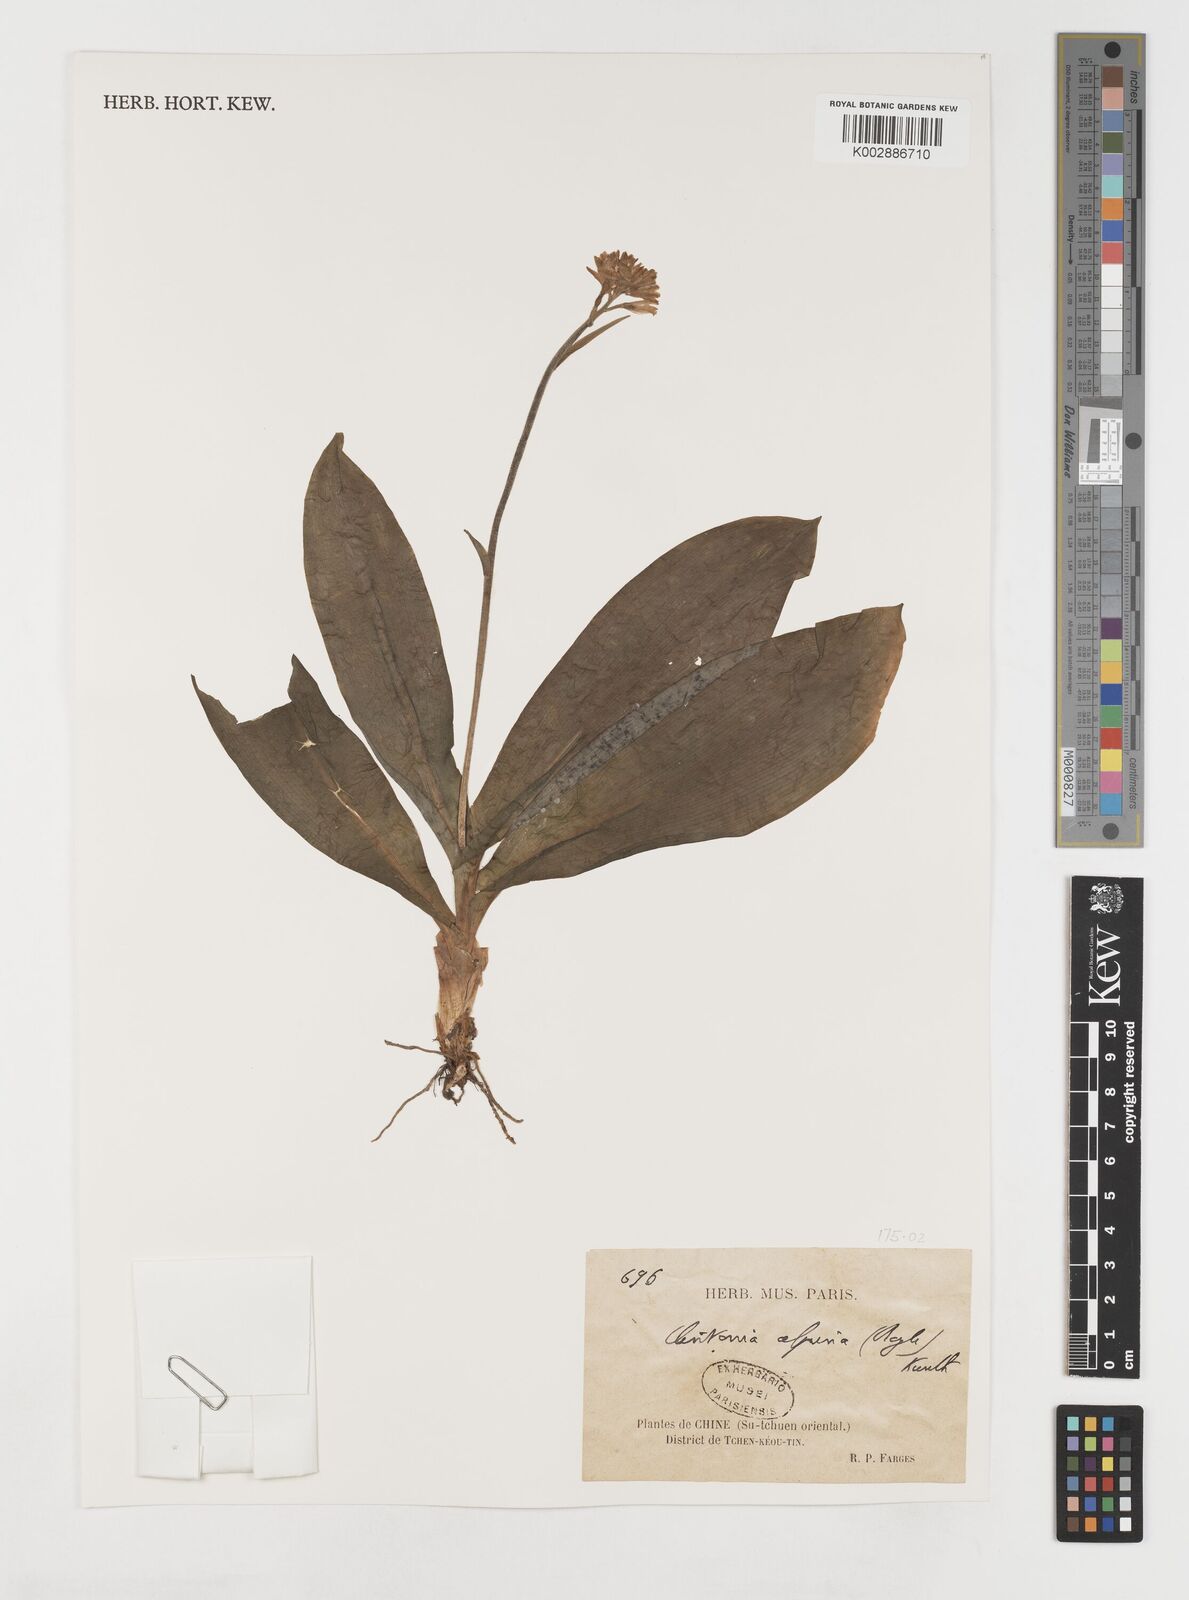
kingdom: Plantae
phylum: Tracheophyta
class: Liliopsida
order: Liliales
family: Liliaceae
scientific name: Liliaceae
